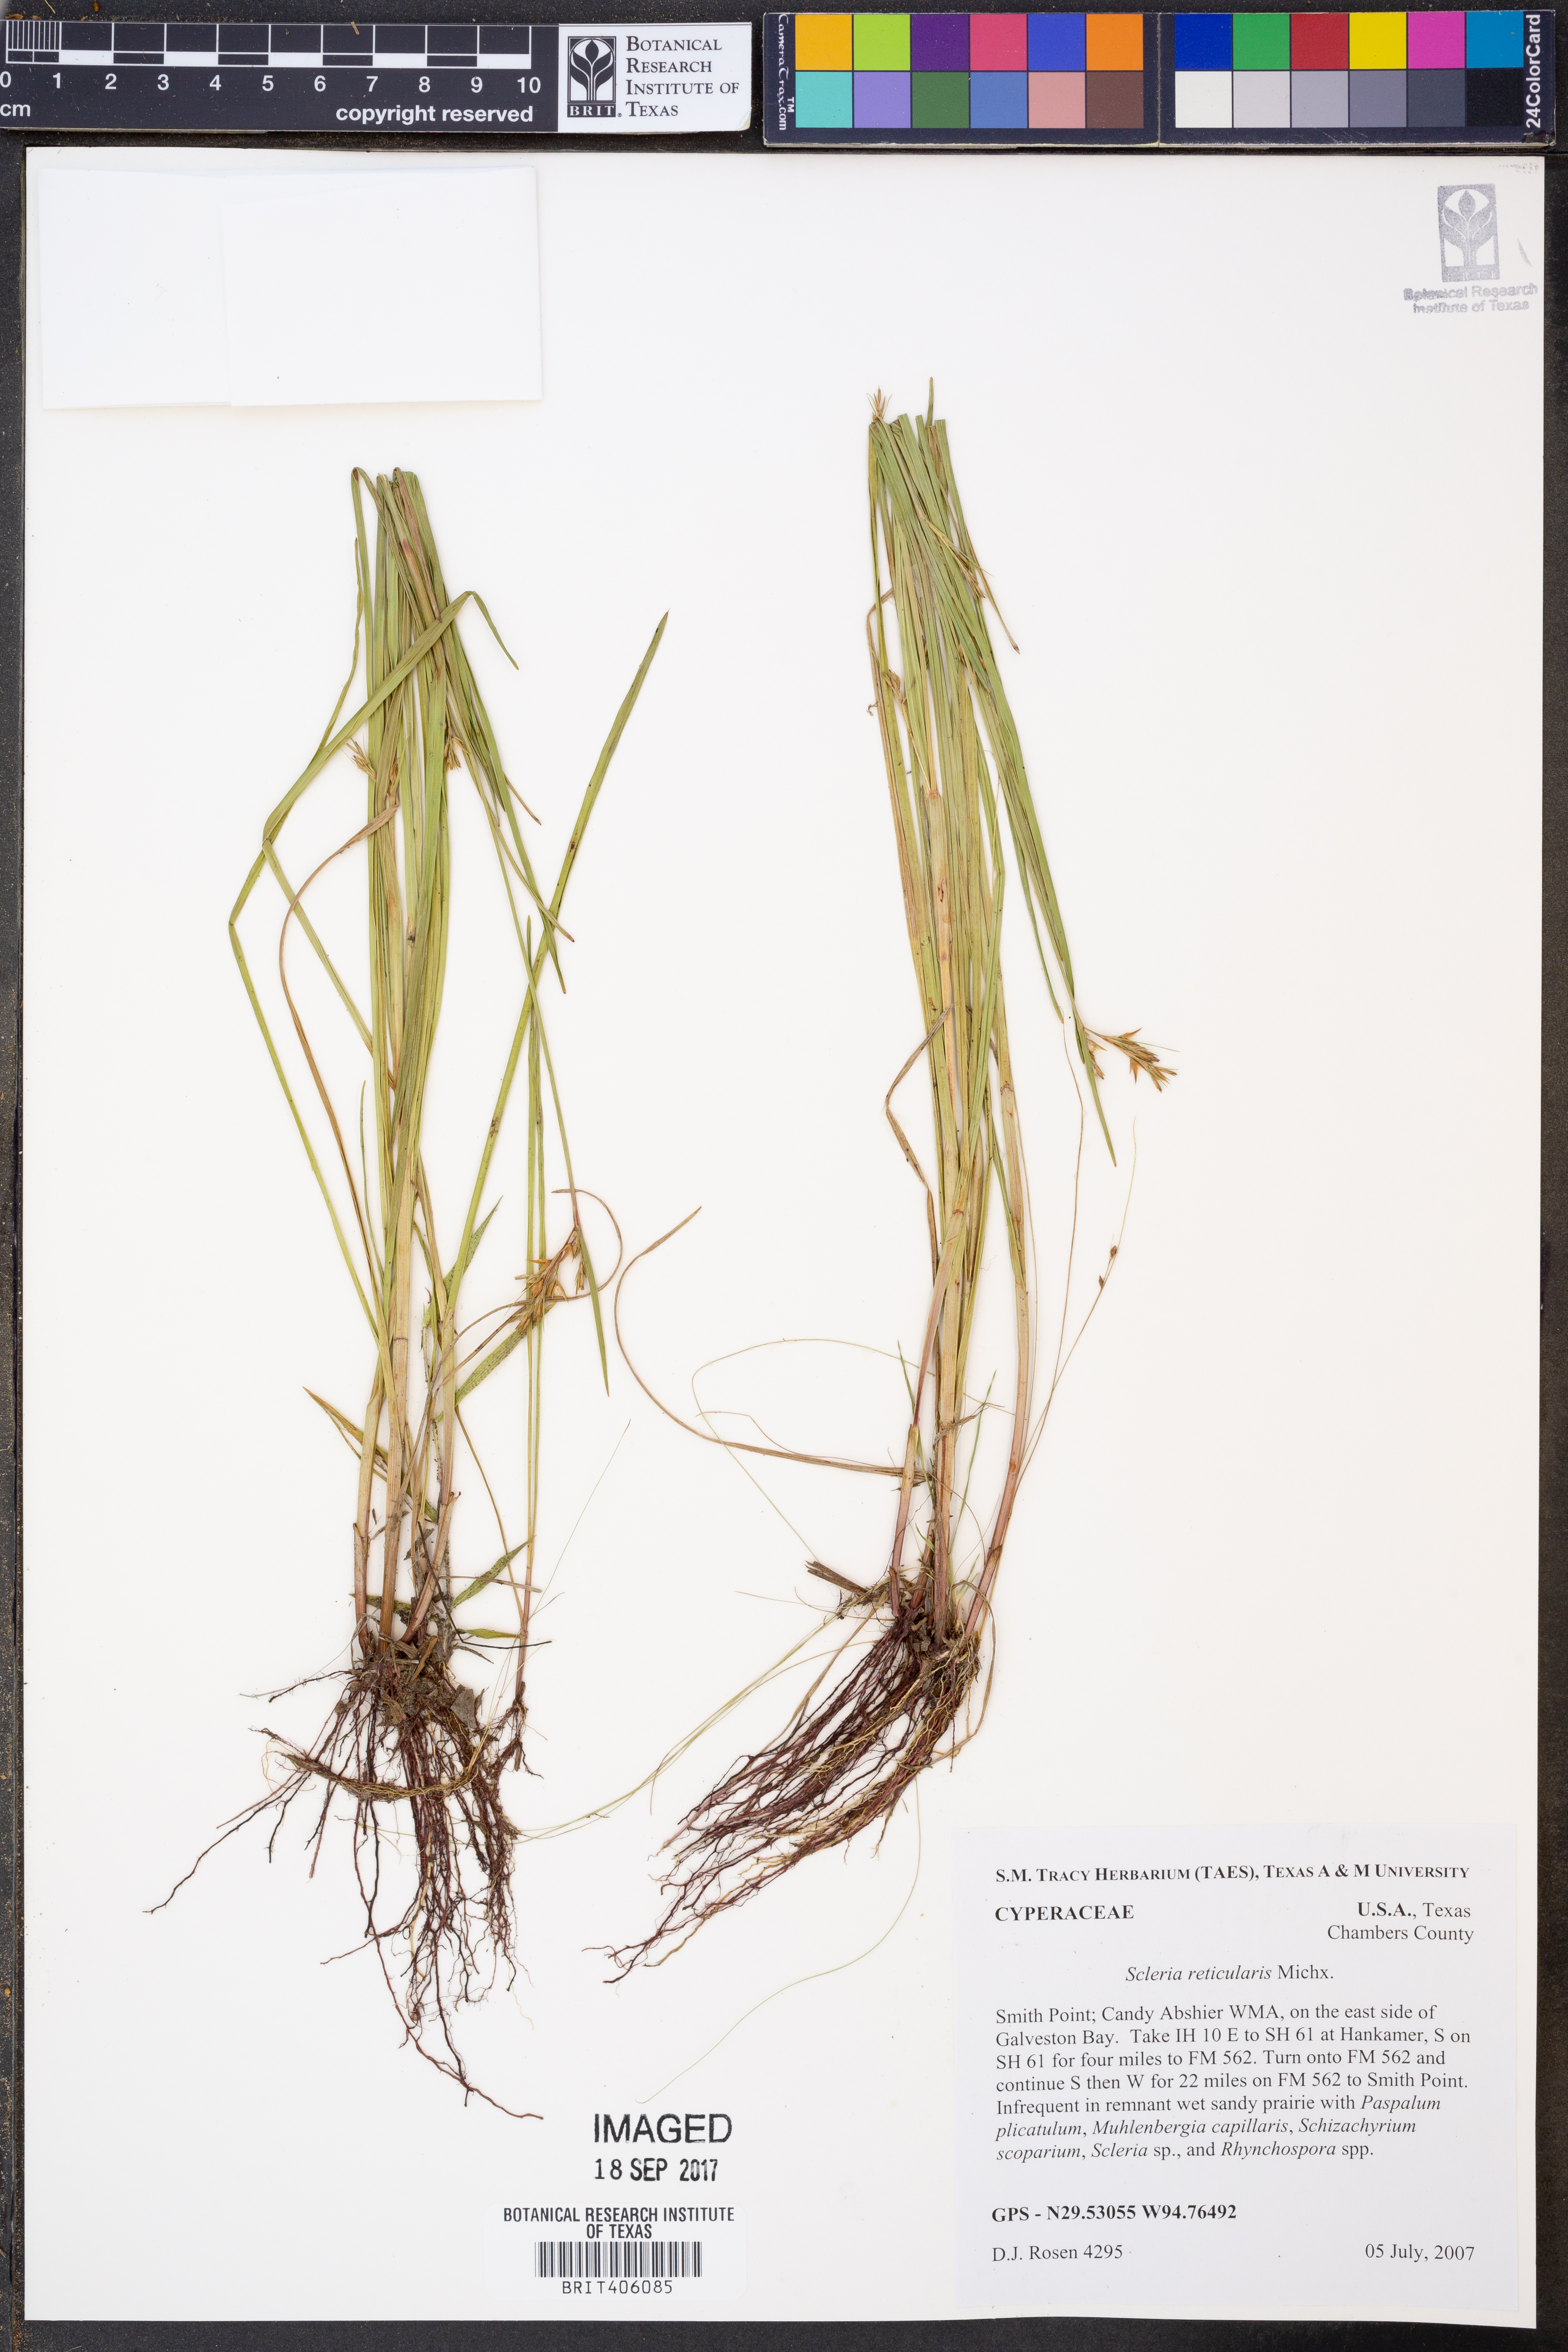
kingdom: Plantae
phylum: Tracheophyta
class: Liliopsida
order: Poales
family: Cyperaceae
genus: Scleria
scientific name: Scleria reticularis
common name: Netted nutrush
